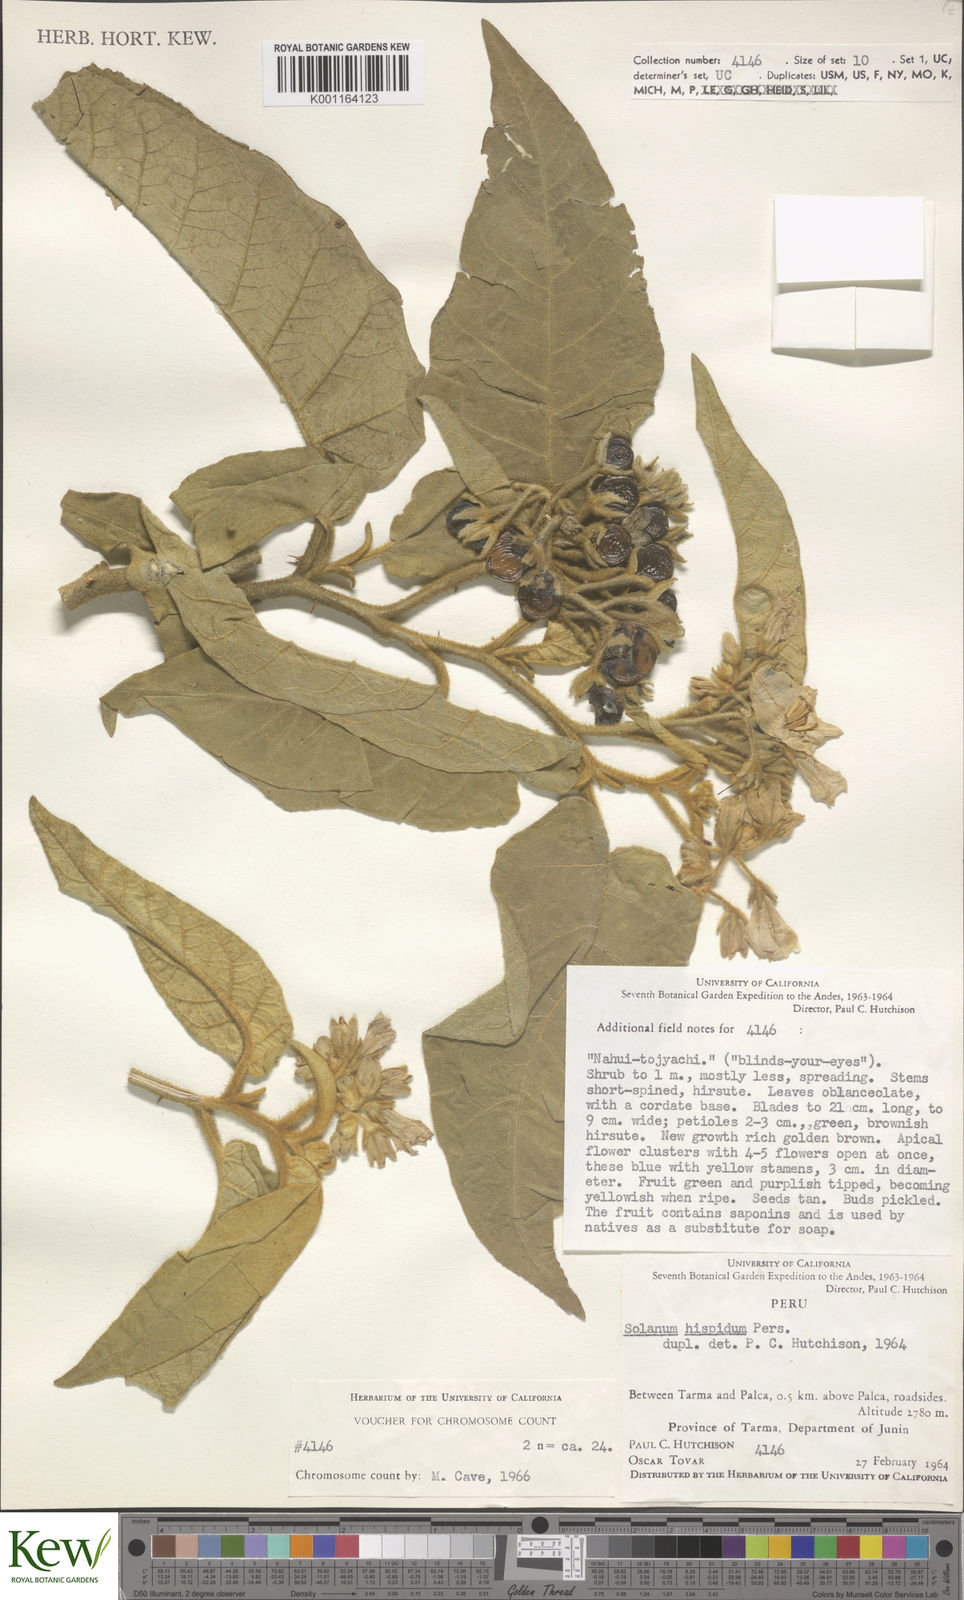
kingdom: Plantae
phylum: Tracheophyta
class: Magnoliopsida
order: Solanales
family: Solanaceae
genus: Solanum
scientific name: Solanum asperolanatum
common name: Devil's-fig
